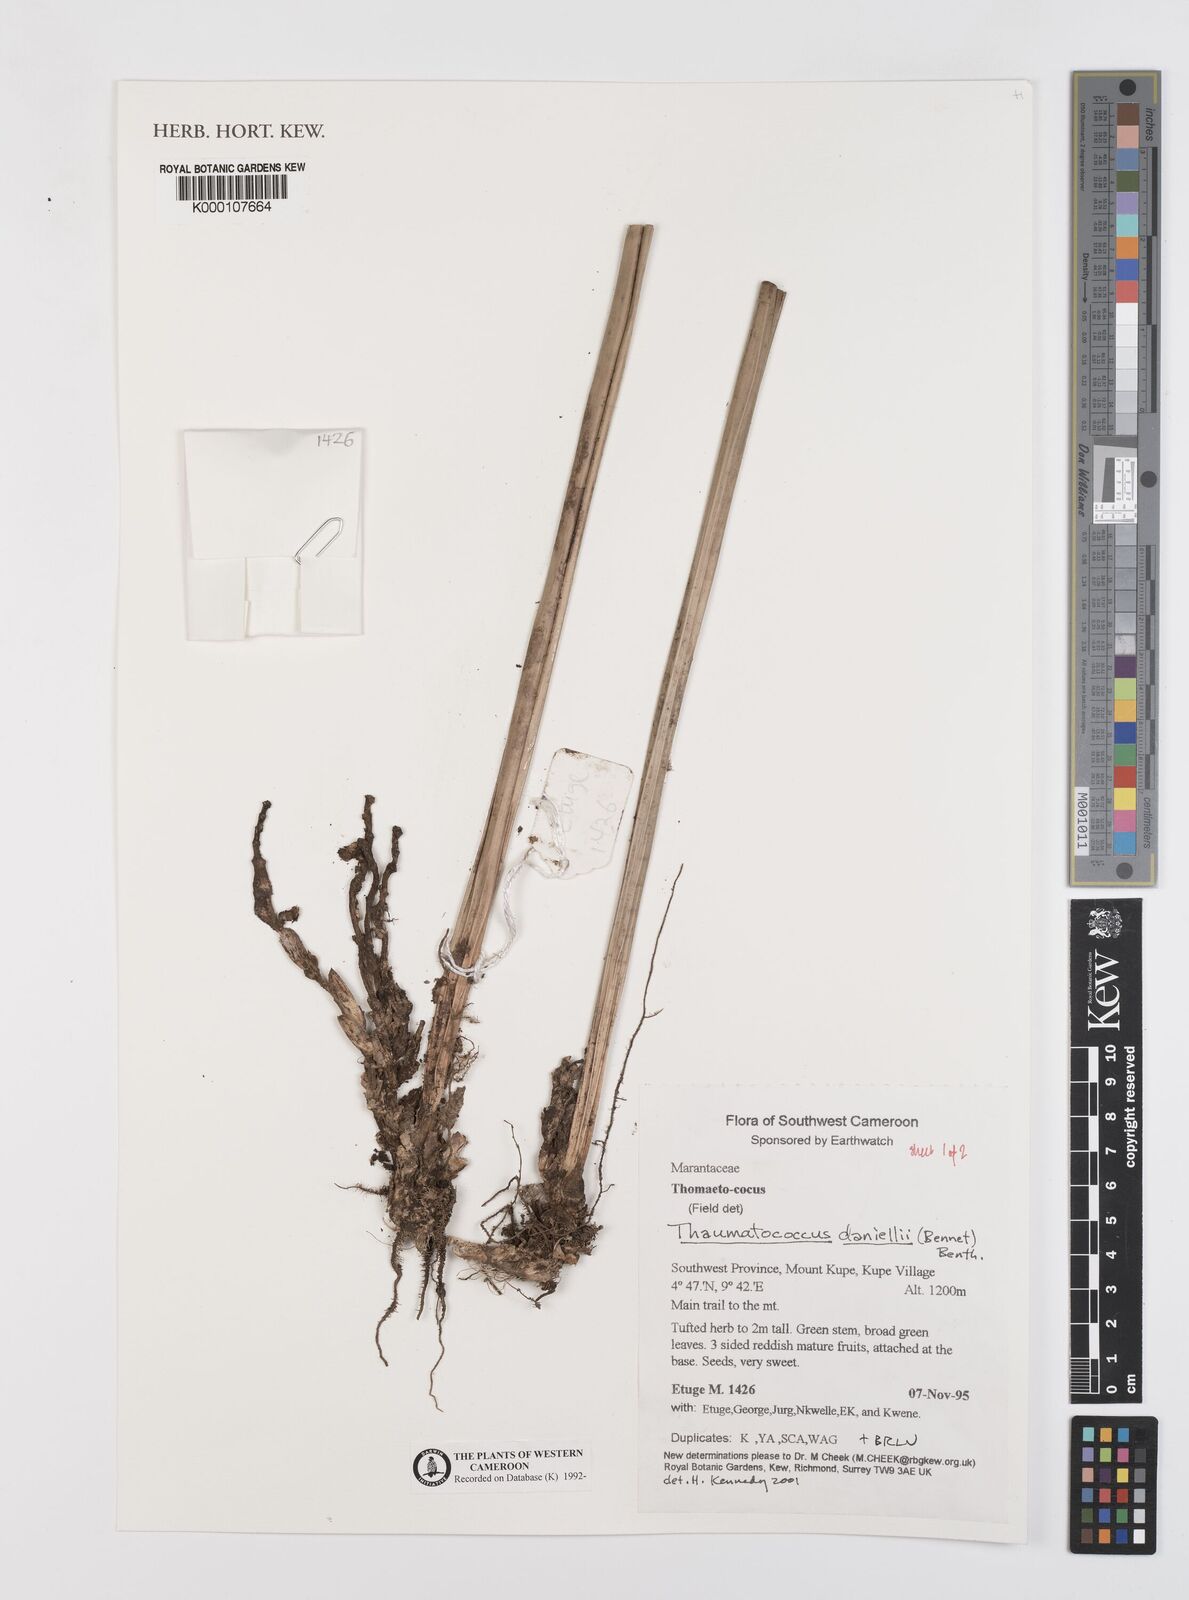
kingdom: Plantae
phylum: Tracheophyta
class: Liliopsida
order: Zingiberales
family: Marantaceae
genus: Thaumatococcus
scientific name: Thaumatococcus
